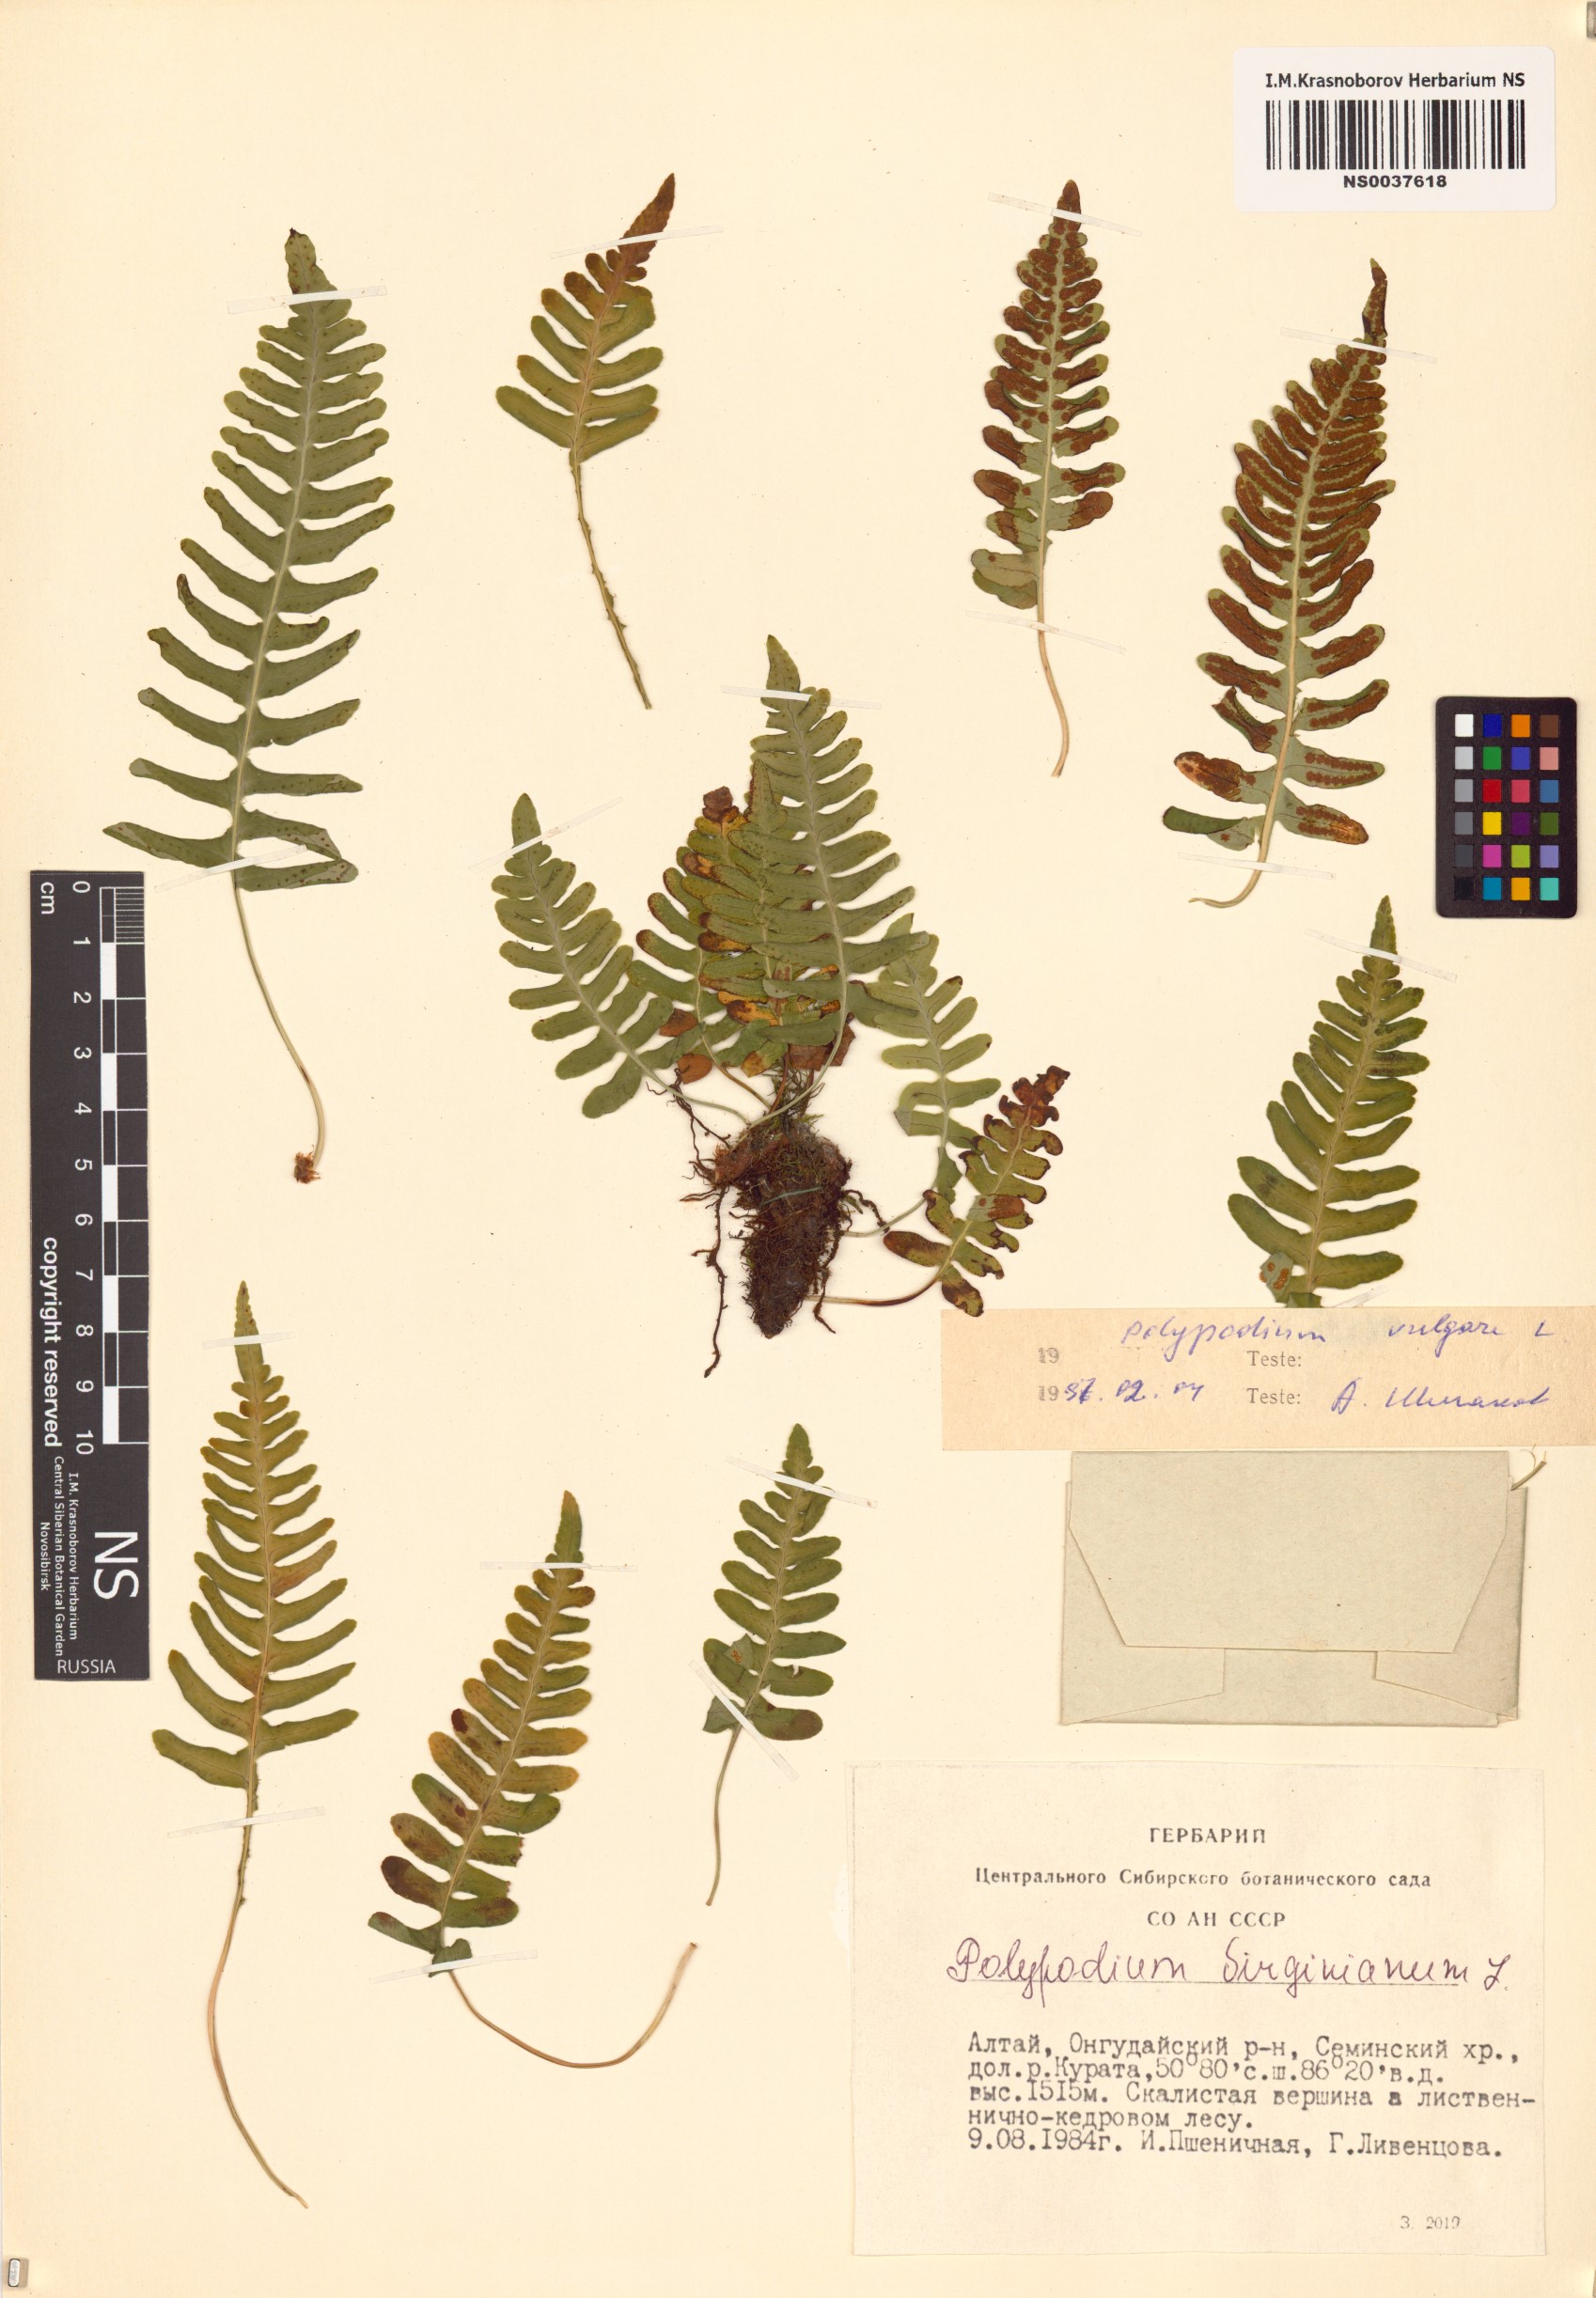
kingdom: Plantae
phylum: Tracheophyta
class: Polypodiopsida
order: Polypodiales
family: Polypodiaceae
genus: Polypodium
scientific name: Polypodium vulgare
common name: Common polypody
